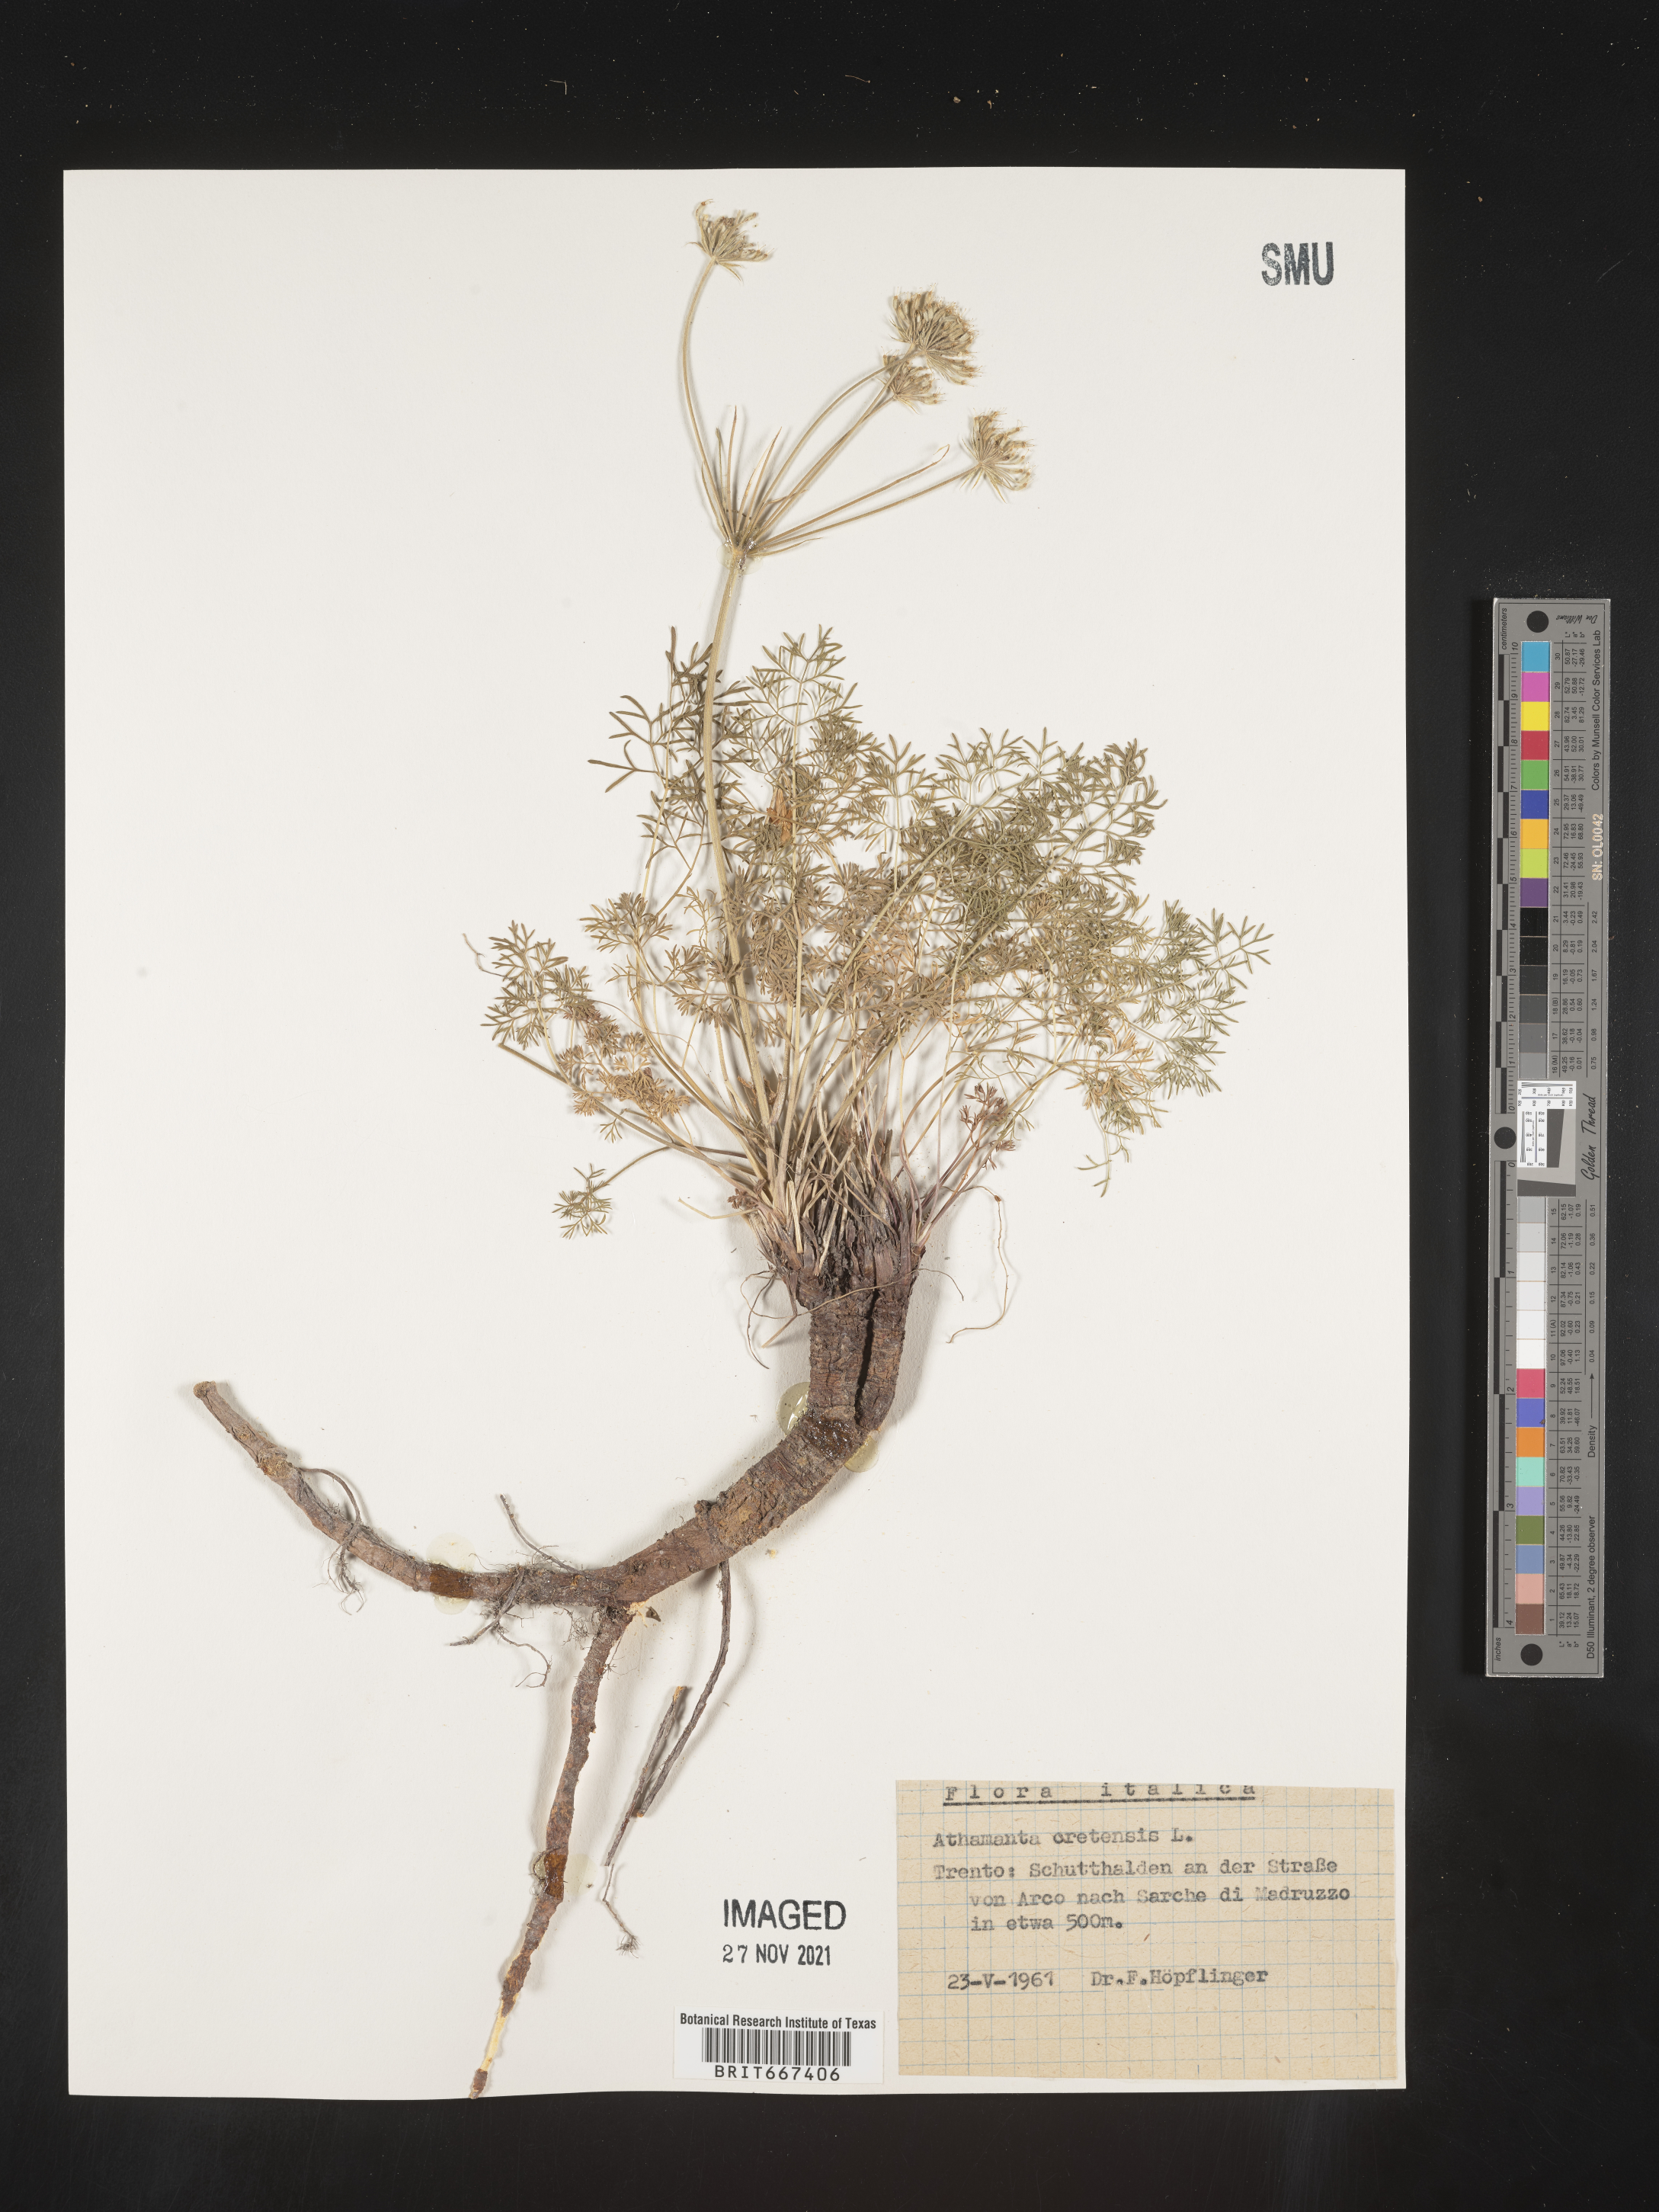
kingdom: Plantae
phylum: Tracheophyta
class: Magnoliopsida
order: Apiales
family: Apiaceae
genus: Athamanta
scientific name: Athamanta
